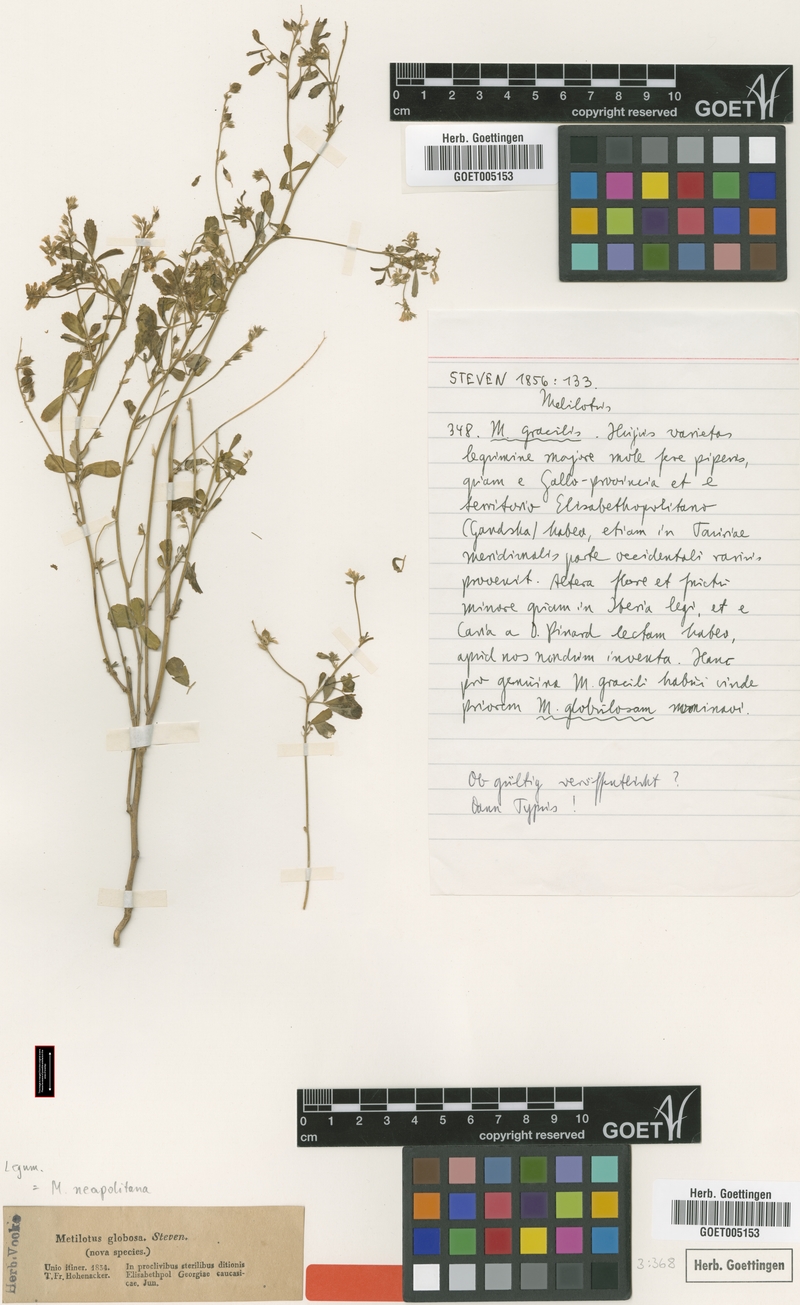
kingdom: Plantae
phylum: Tracheophyta
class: Magnoliopsida
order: Fabales
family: Fabaceae
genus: Melilotus
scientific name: Melilotus neapolitanus
